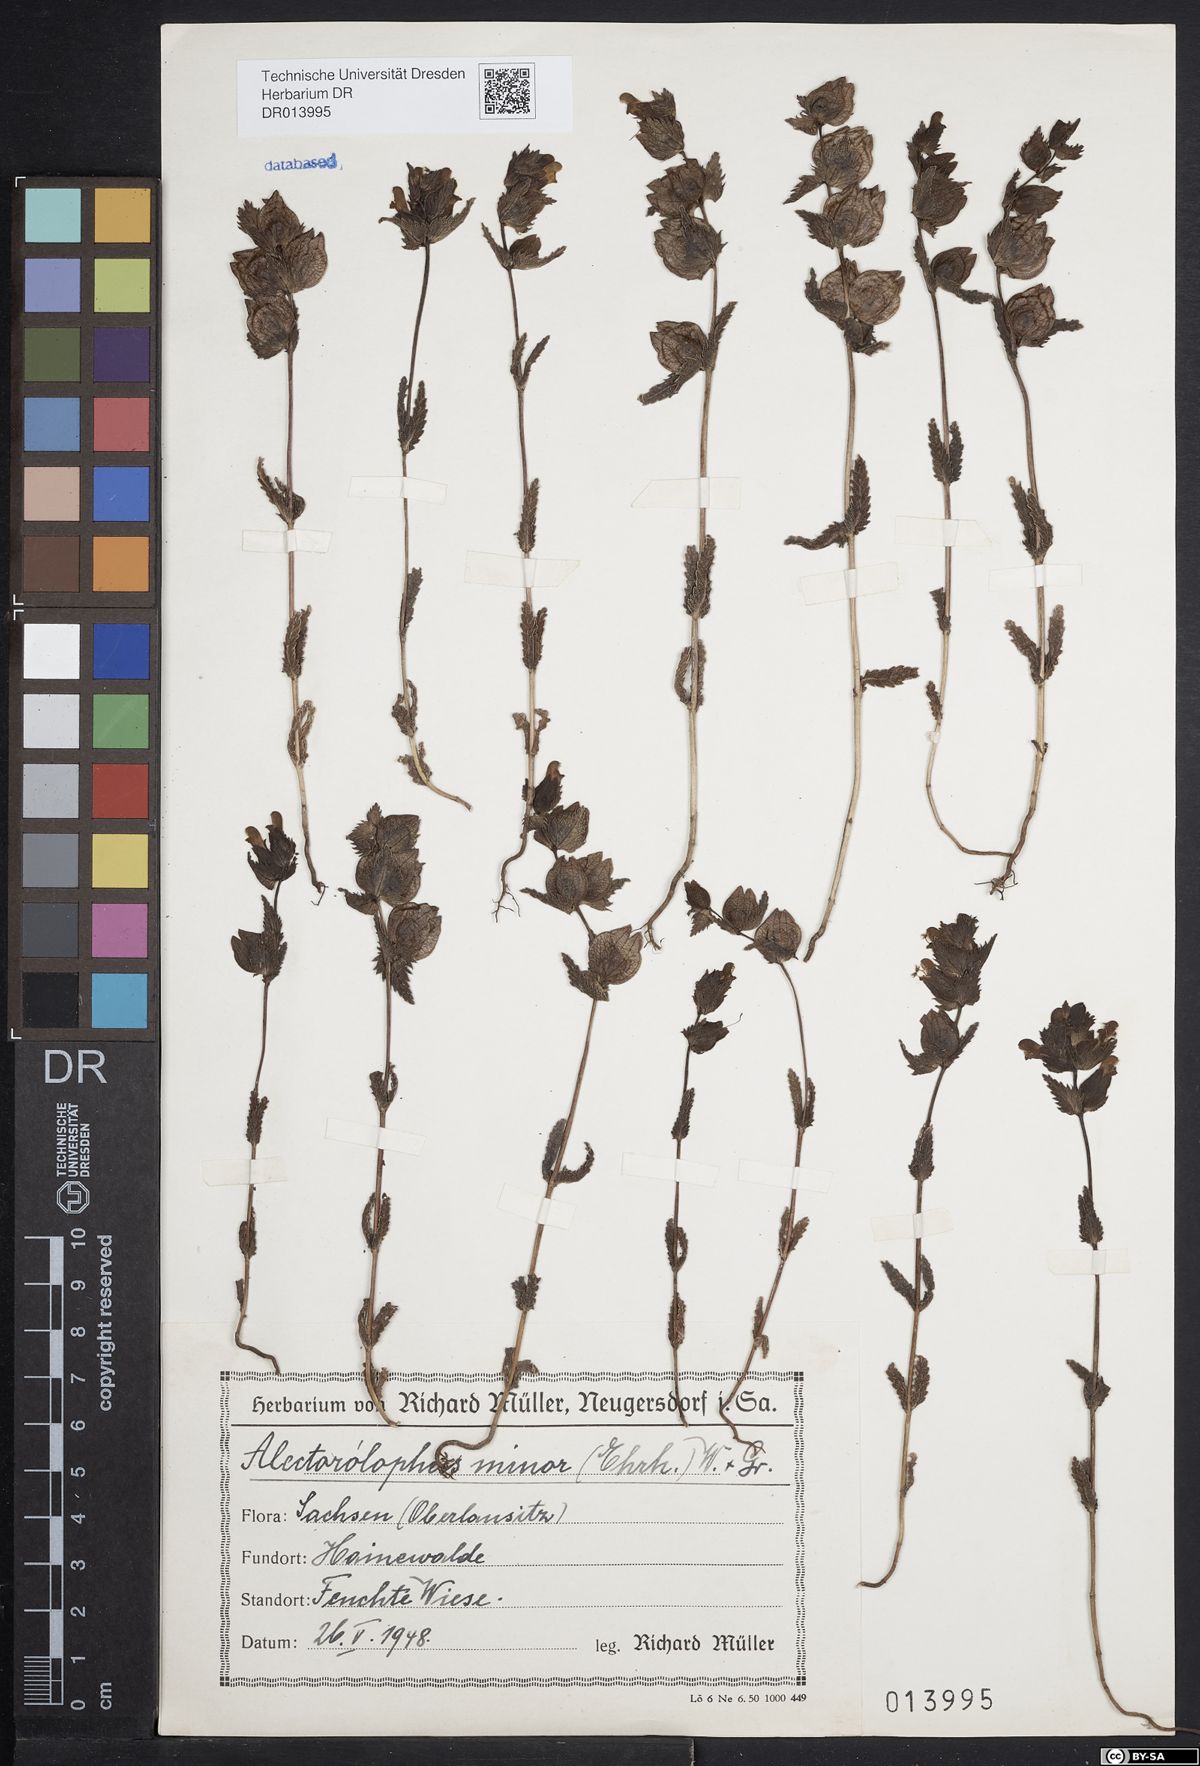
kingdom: Plantae
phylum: Tracheophyta
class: Magnoliopsida
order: Lamiales
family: Orobanchaceae
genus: Rhinanthus
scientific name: Rhinanthus minor
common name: Yellow-rattle
